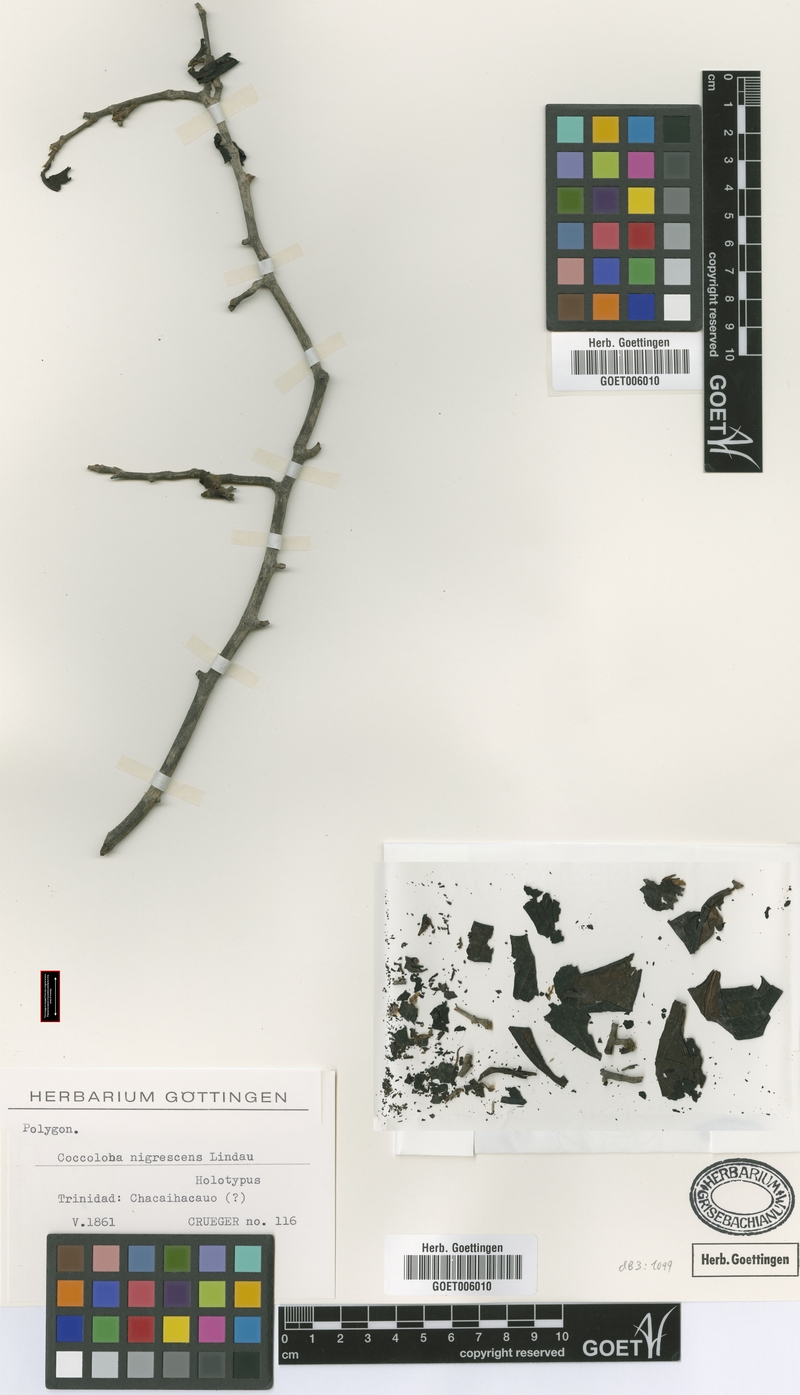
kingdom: Plantae
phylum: Tracheophyta
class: Magnoliopsida
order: Caryophyllales
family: Polygonaceae
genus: Coccoloba
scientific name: Coccoloba nigrescens
